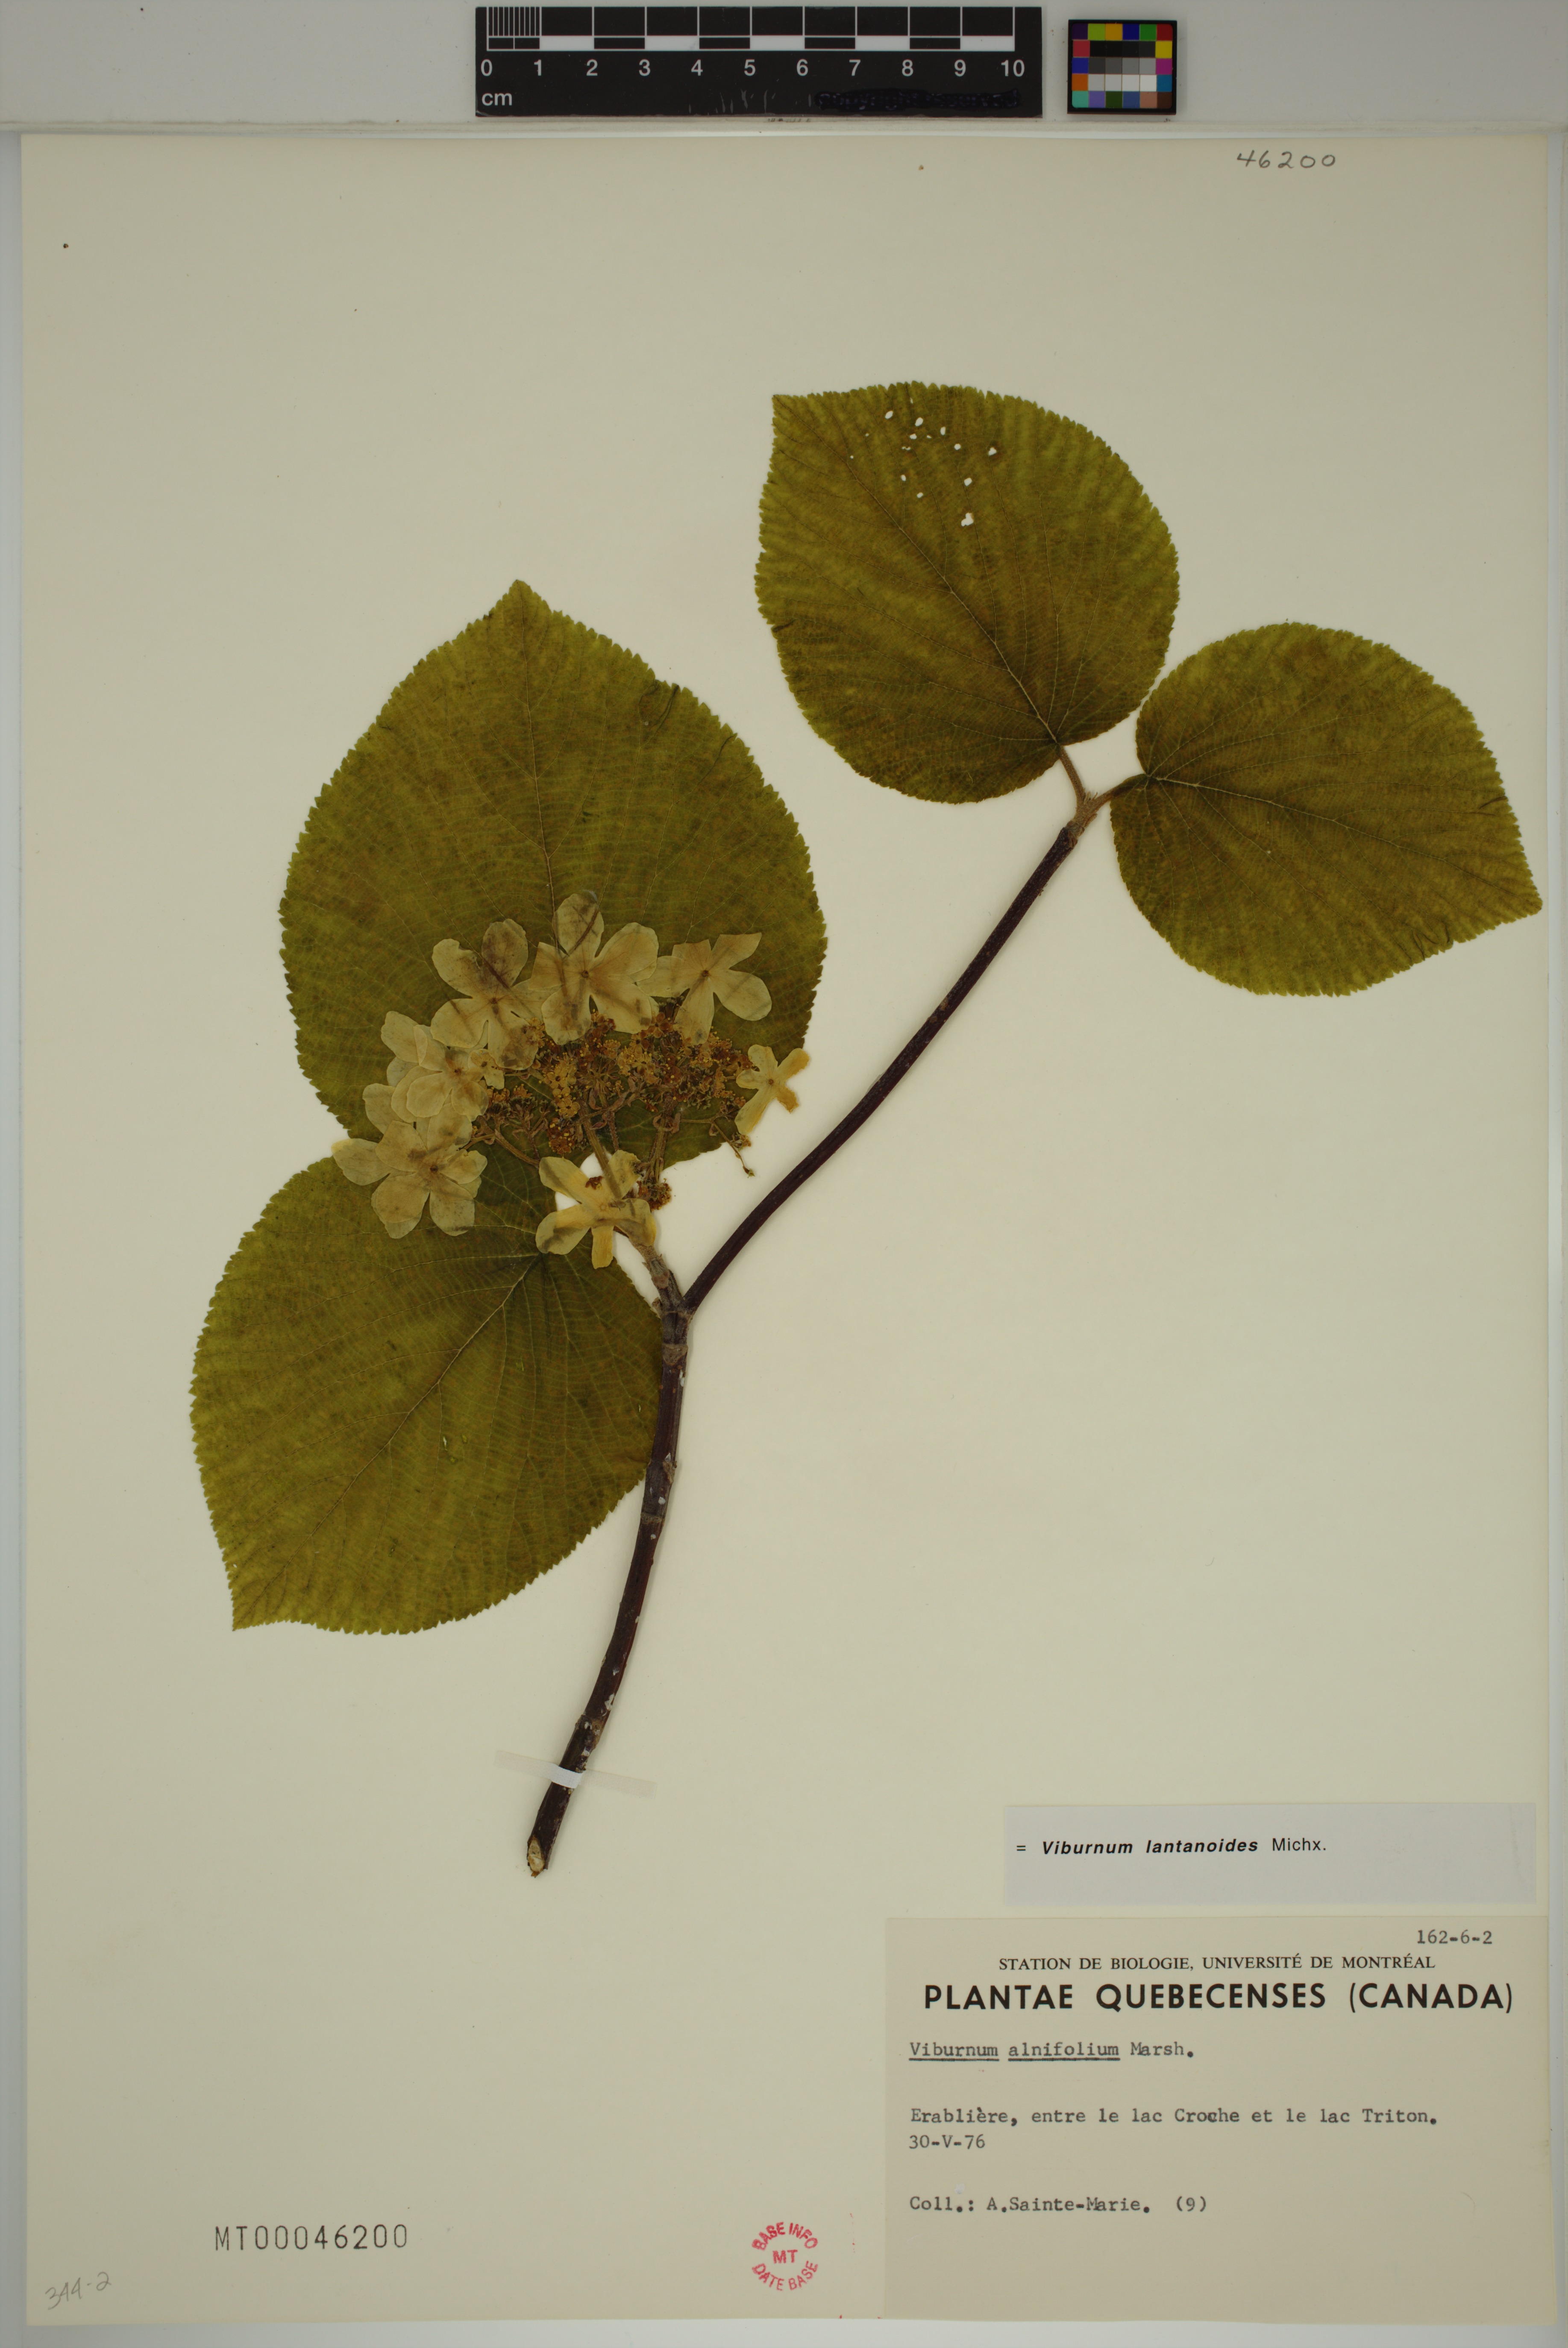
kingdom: Plantae
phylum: Tracheophyta
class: Magnoliopsida
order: Dipsacales
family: Viburnaceae
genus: Viburnum
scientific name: Viburnum lantanoides
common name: Hobblebush
